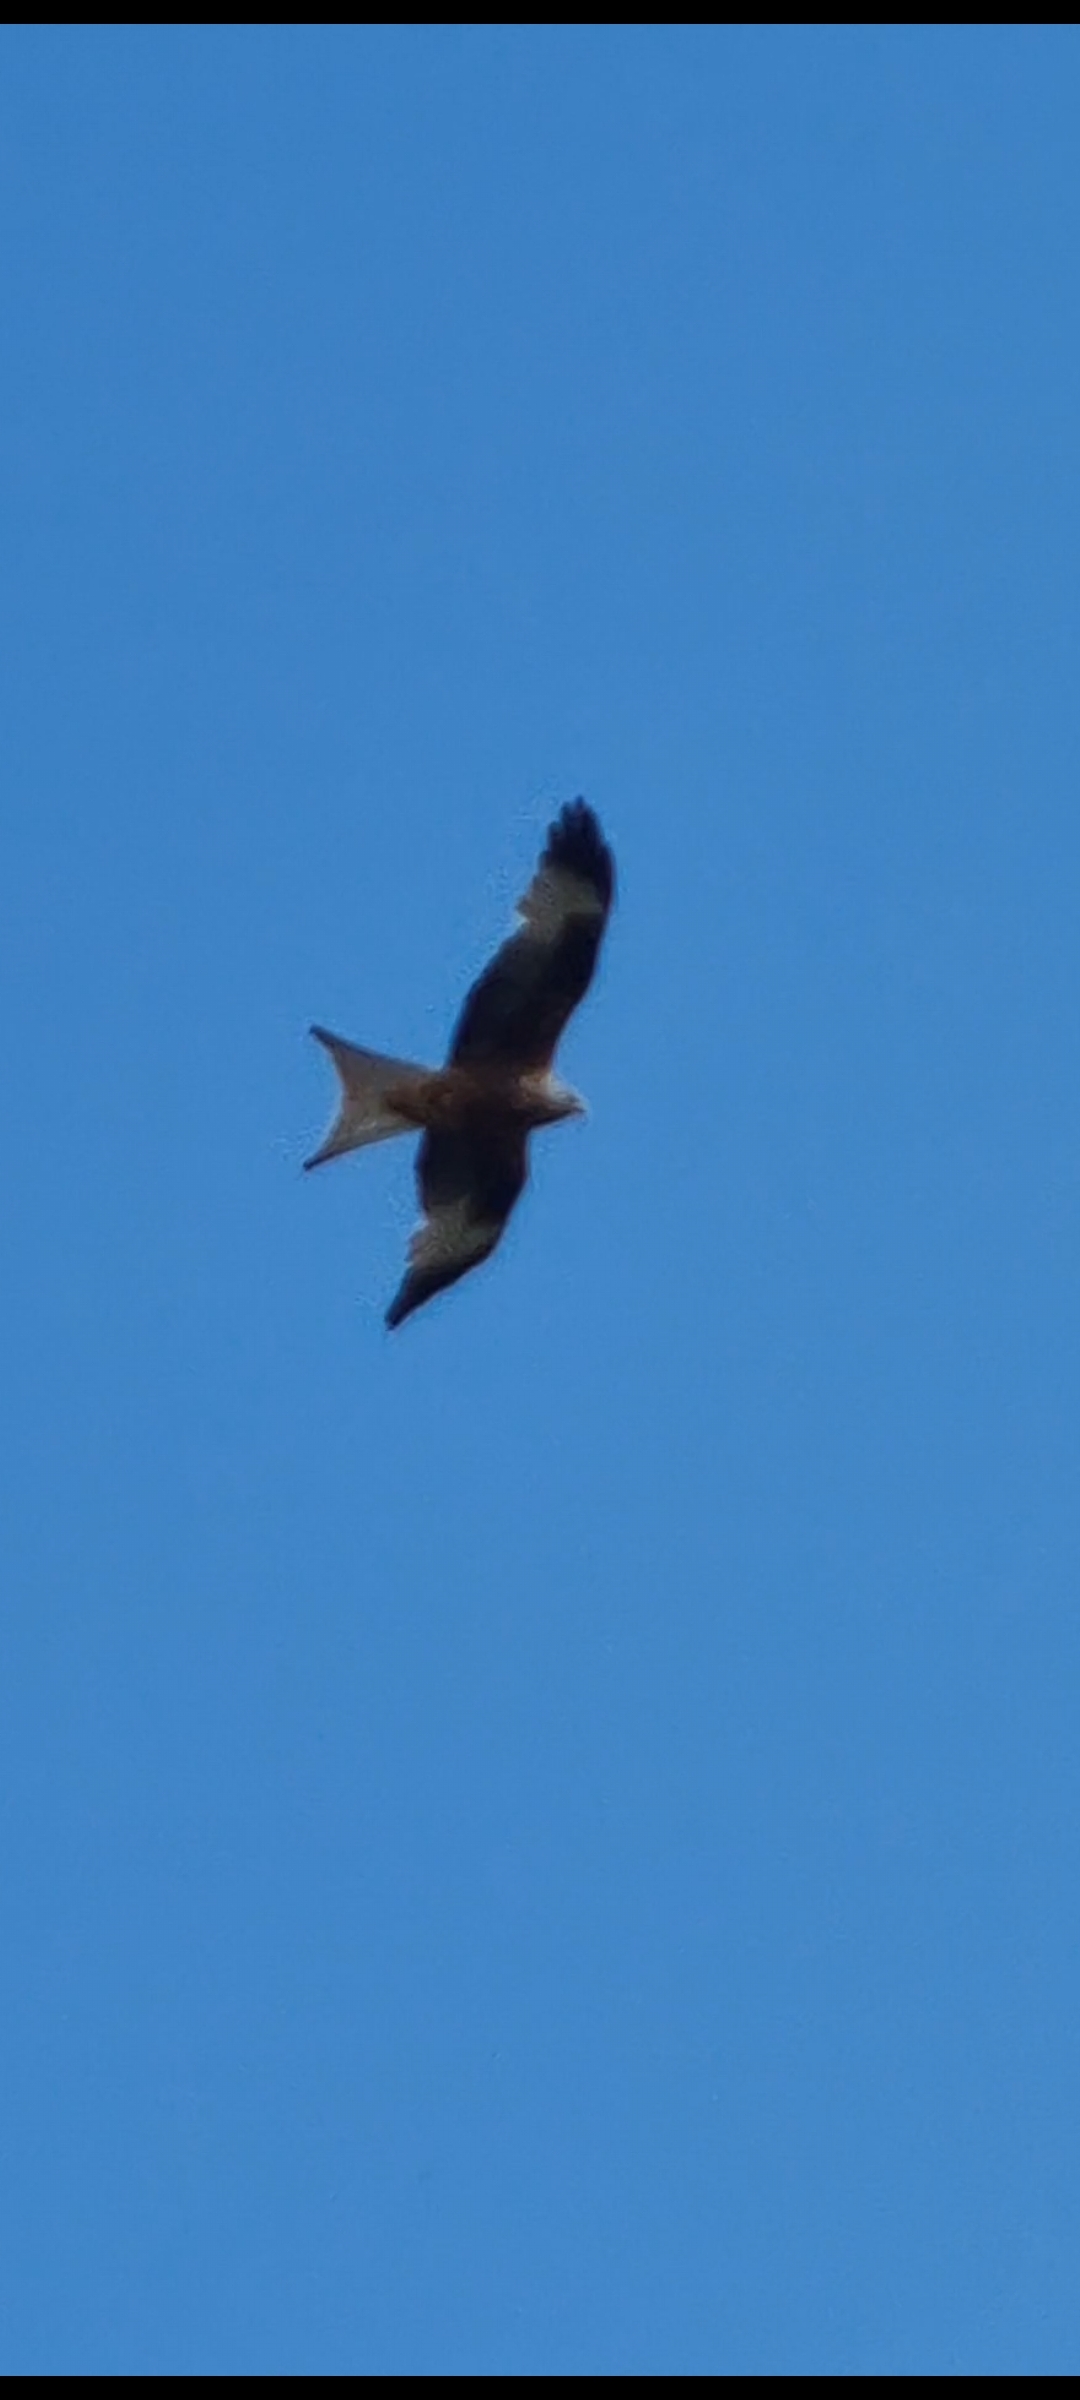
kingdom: Animalia
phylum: Chordata
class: Aves
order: Accipitriformes
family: Accipitridae
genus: Milvus
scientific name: Milvus milvus
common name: Rød glente
